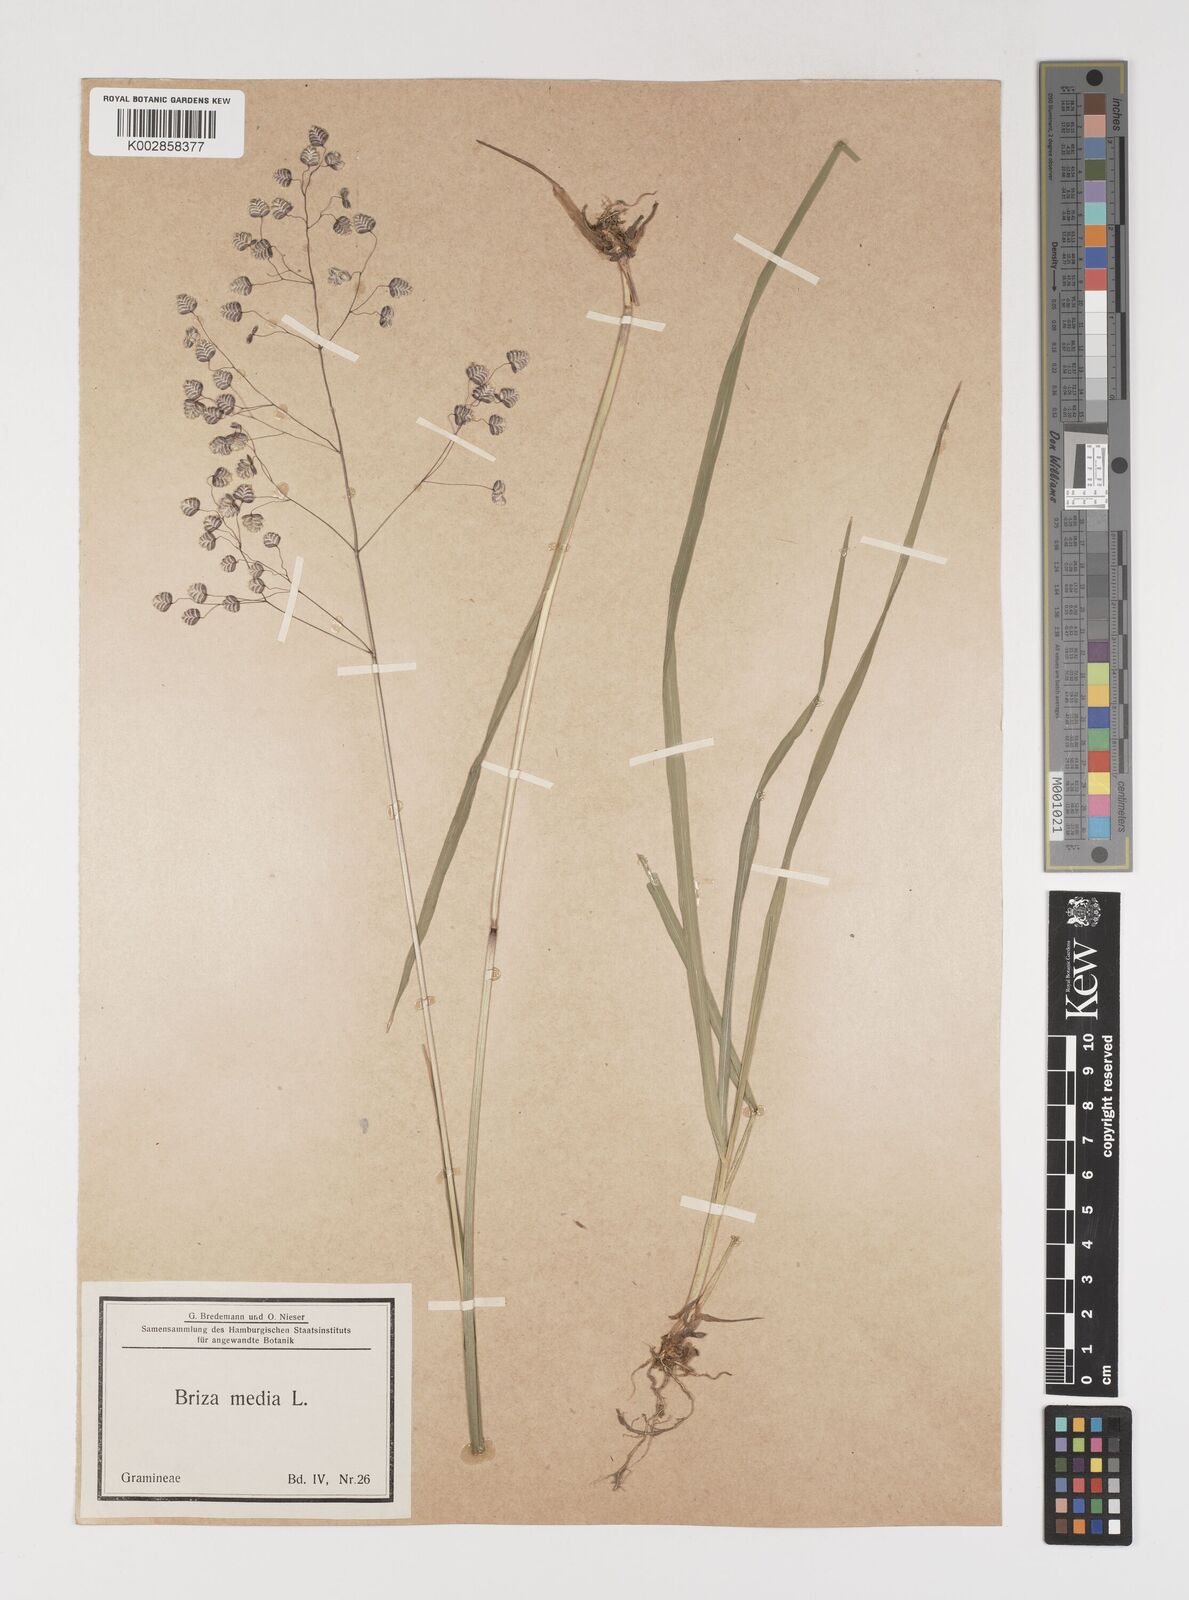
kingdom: Plantae
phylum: Tracheophyta
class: Liliopsida
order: Poales
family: Poaceae
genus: Briza
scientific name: Briza media
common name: Quaking grass
